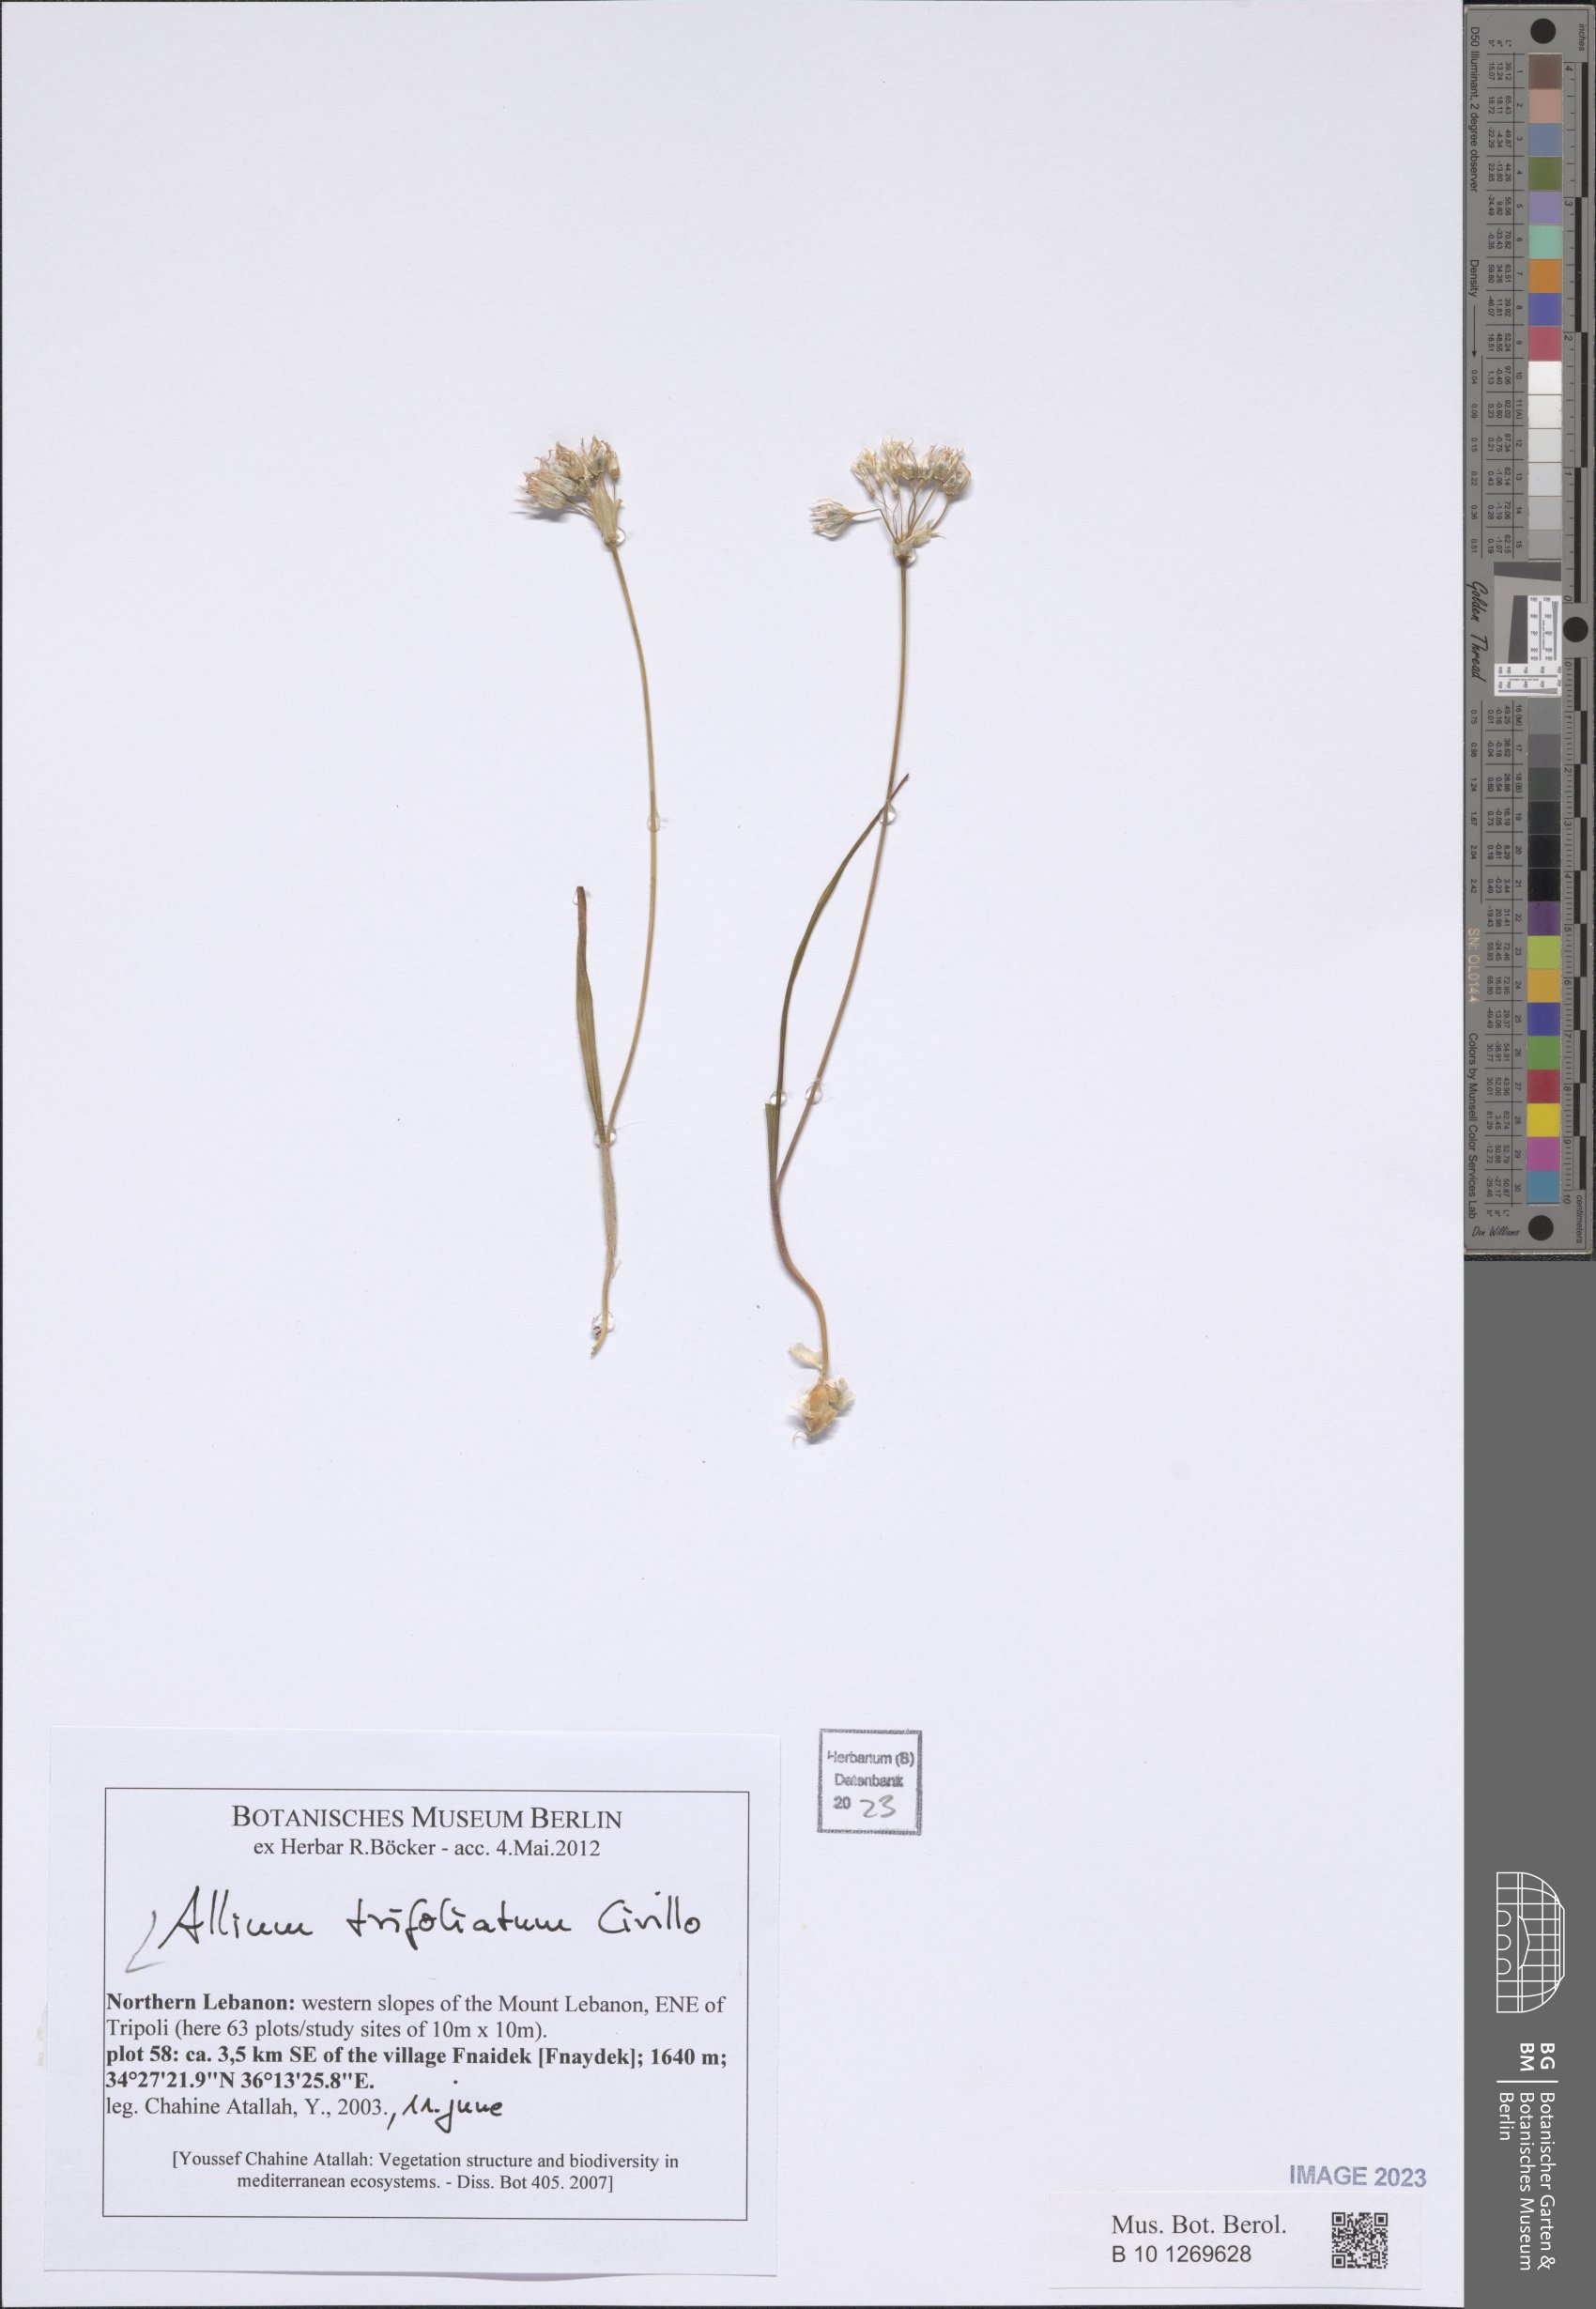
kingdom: Plantae
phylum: Tracheophyta
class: Liliopsida
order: Asparagales
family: Amaryllidaceae
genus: Allium
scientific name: Allium trifoliatum
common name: Pink garlic
